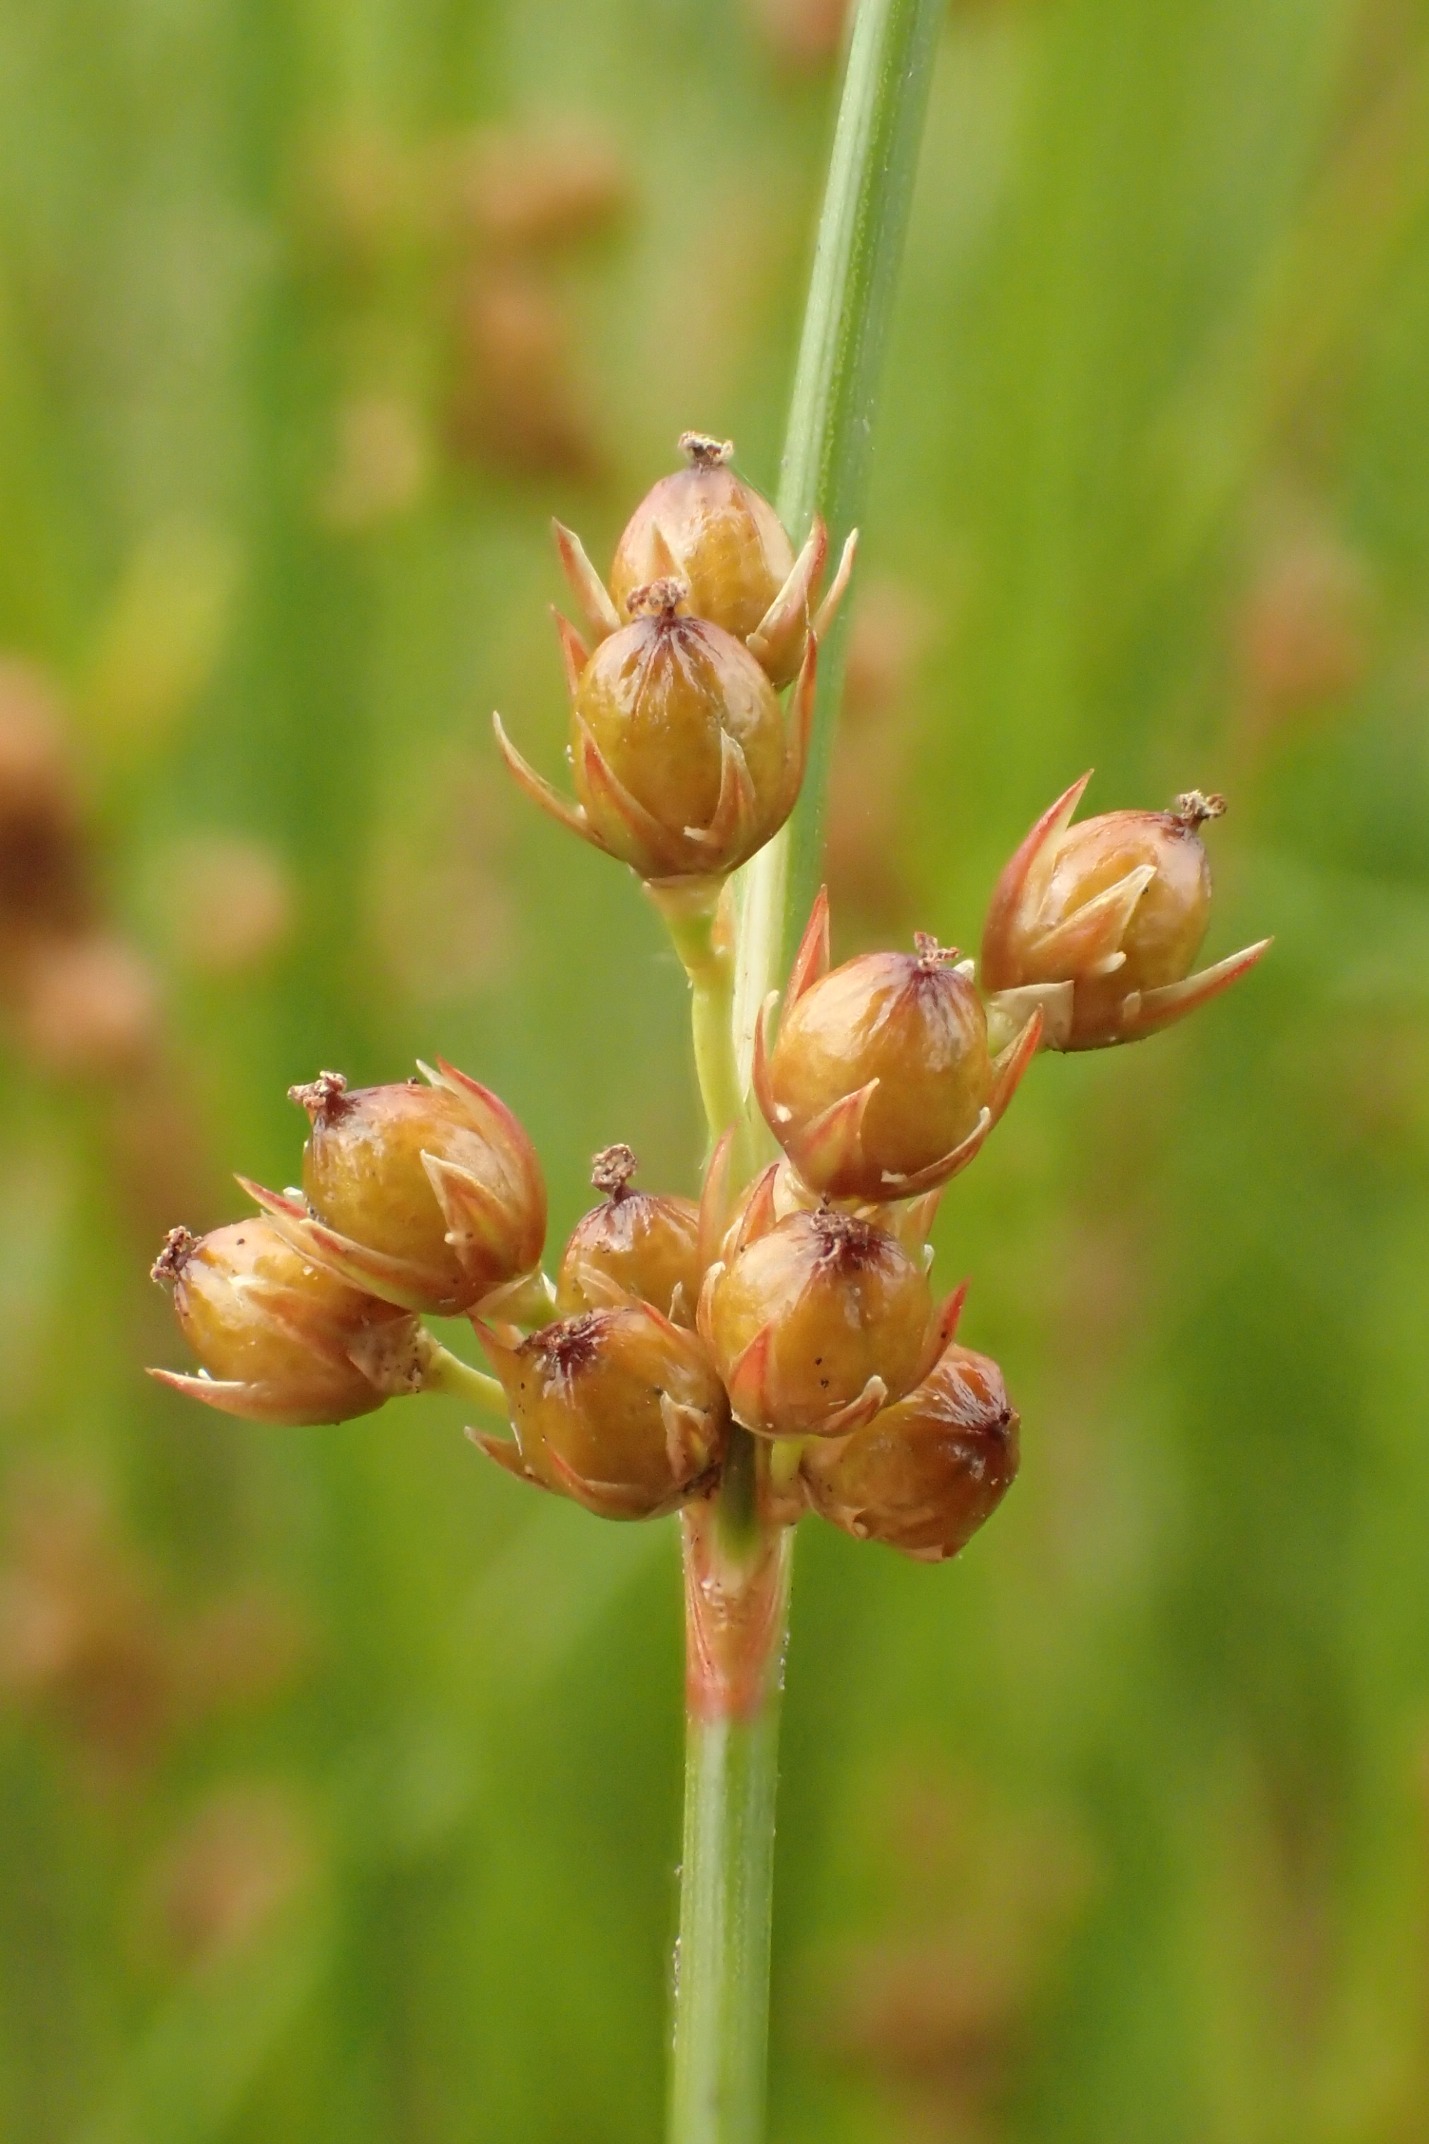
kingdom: Plantae
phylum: Tracheophyta
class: Liliopsida
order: Poales
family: Juncaceae
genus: Juncus
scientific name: Juncus filiformis
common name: Tråd-siv
